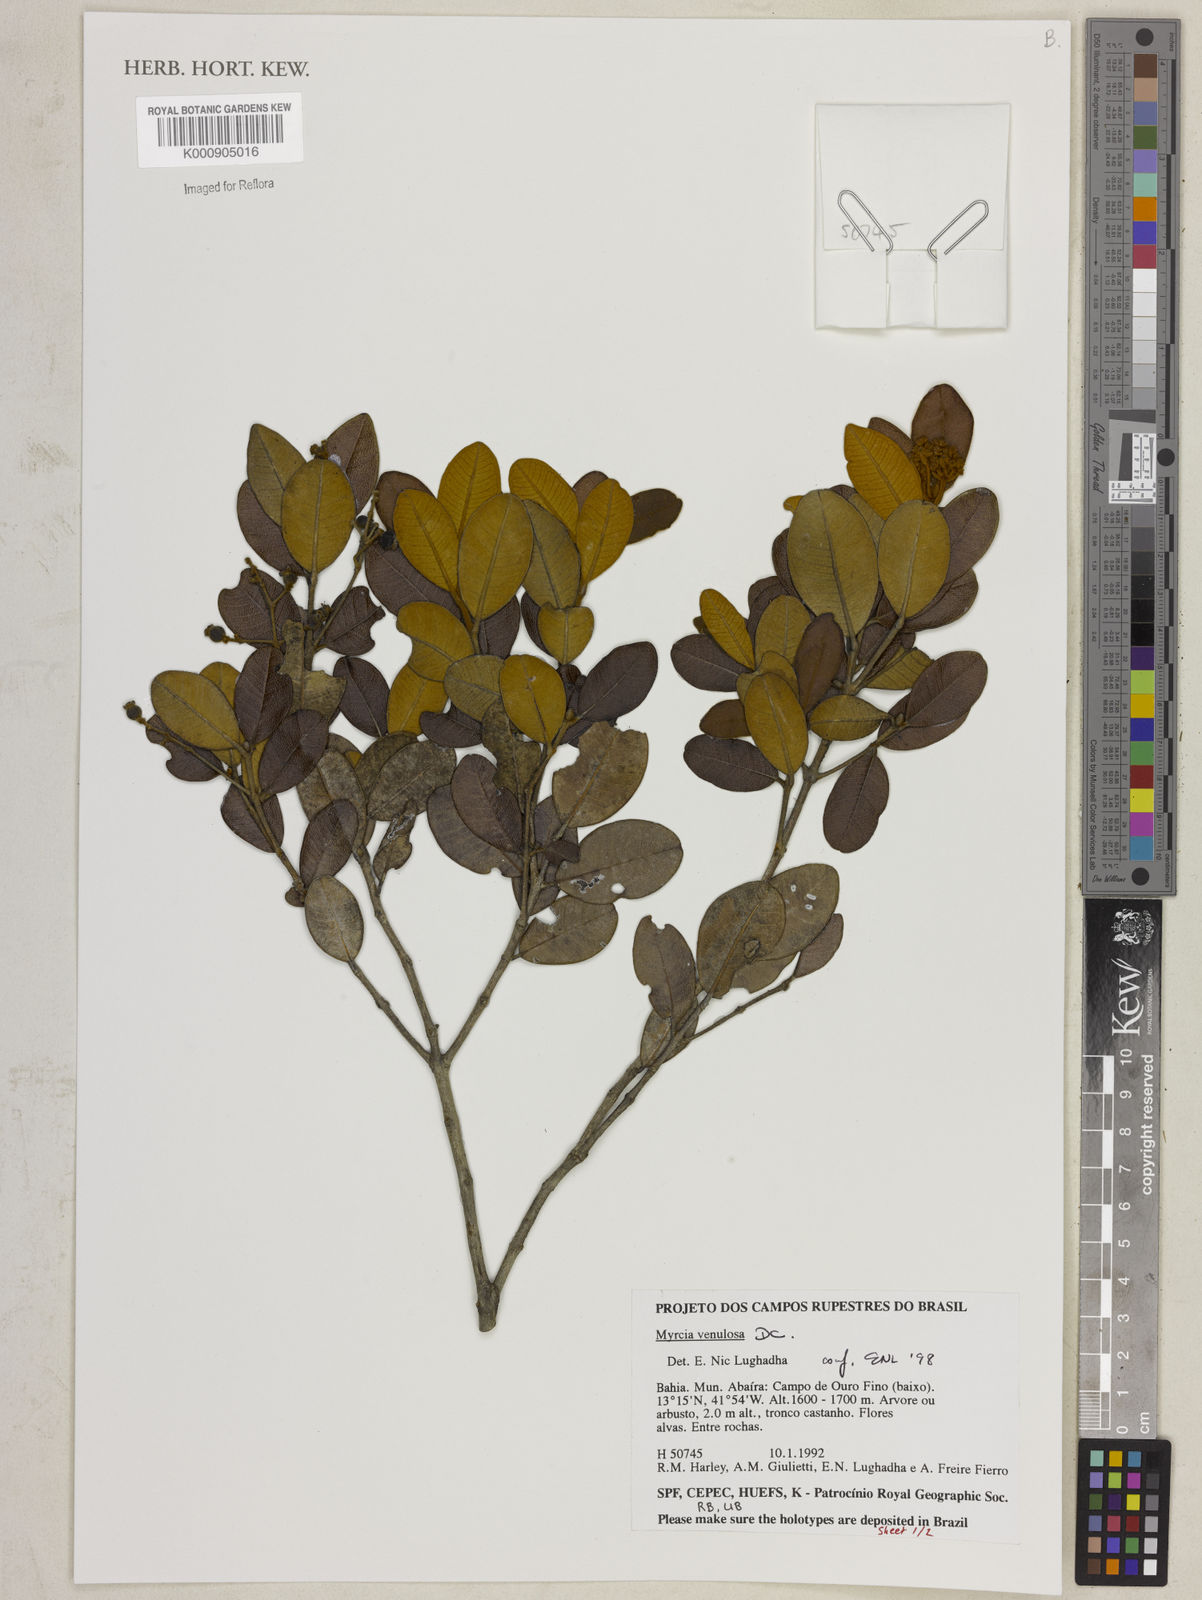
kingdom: Plantae
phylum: Tracheophyta
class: Magnoliopsida
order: Myrtales
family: Myrtaceae
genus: Myrcia
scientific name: Myrcia venulosa
